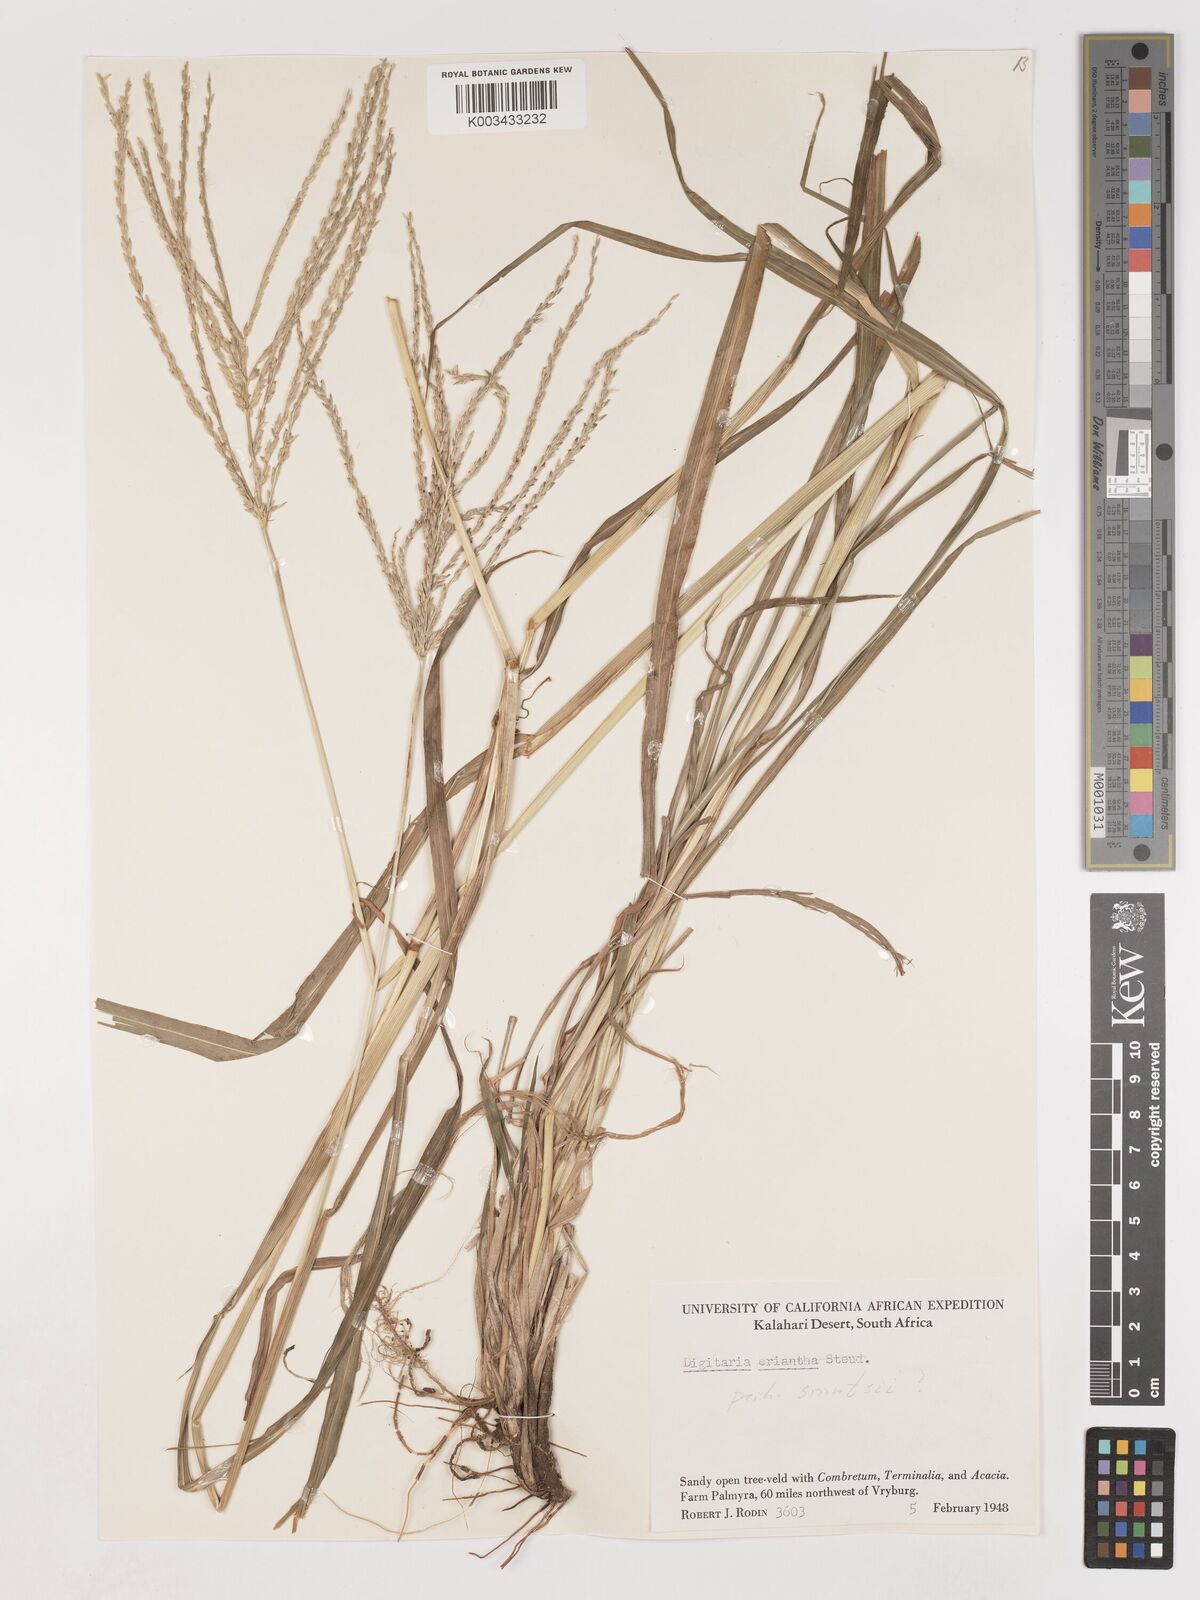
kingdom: Plantae
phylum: Tracheophyta
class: Liliopsida
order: Poales
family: Poaceae
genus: Digitaria
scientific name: Digitaria eriantha
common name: Digitgrass
